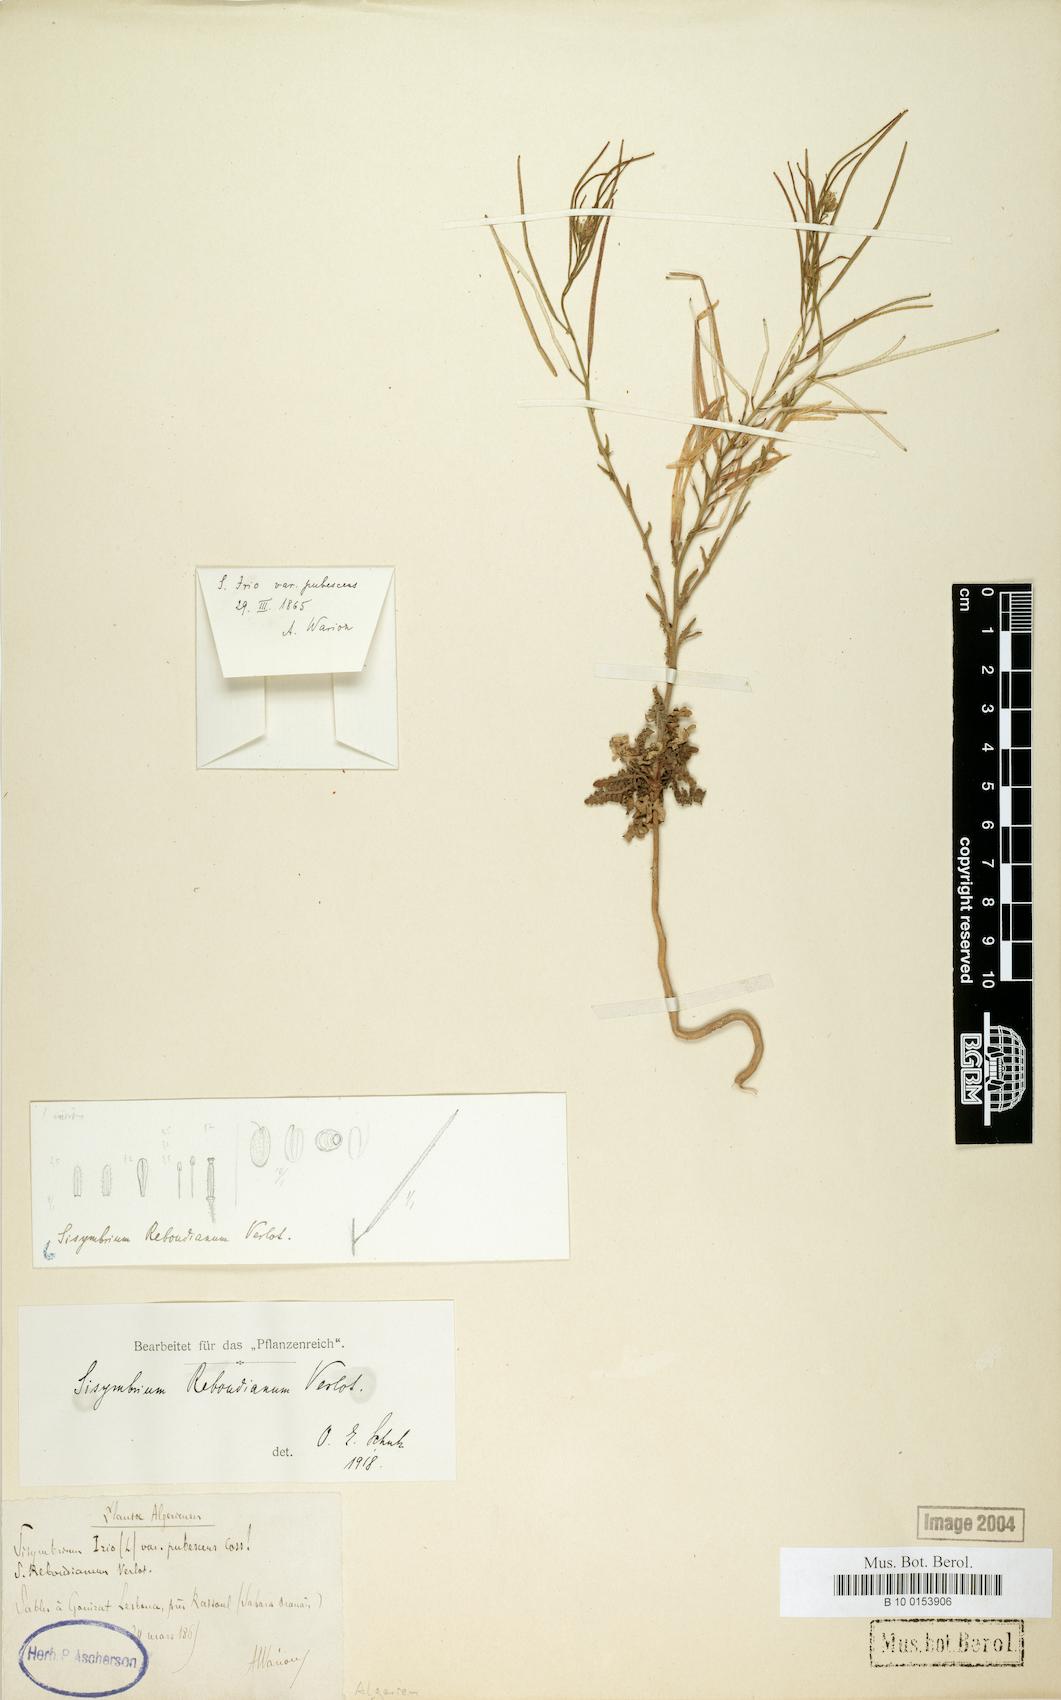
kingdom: Plantae
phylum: Tracheophyta
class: Magnoliopsida
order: Brassicales
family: Brassicaceae
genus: Sisymbrium
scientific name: Sisymbrium reboudianum
